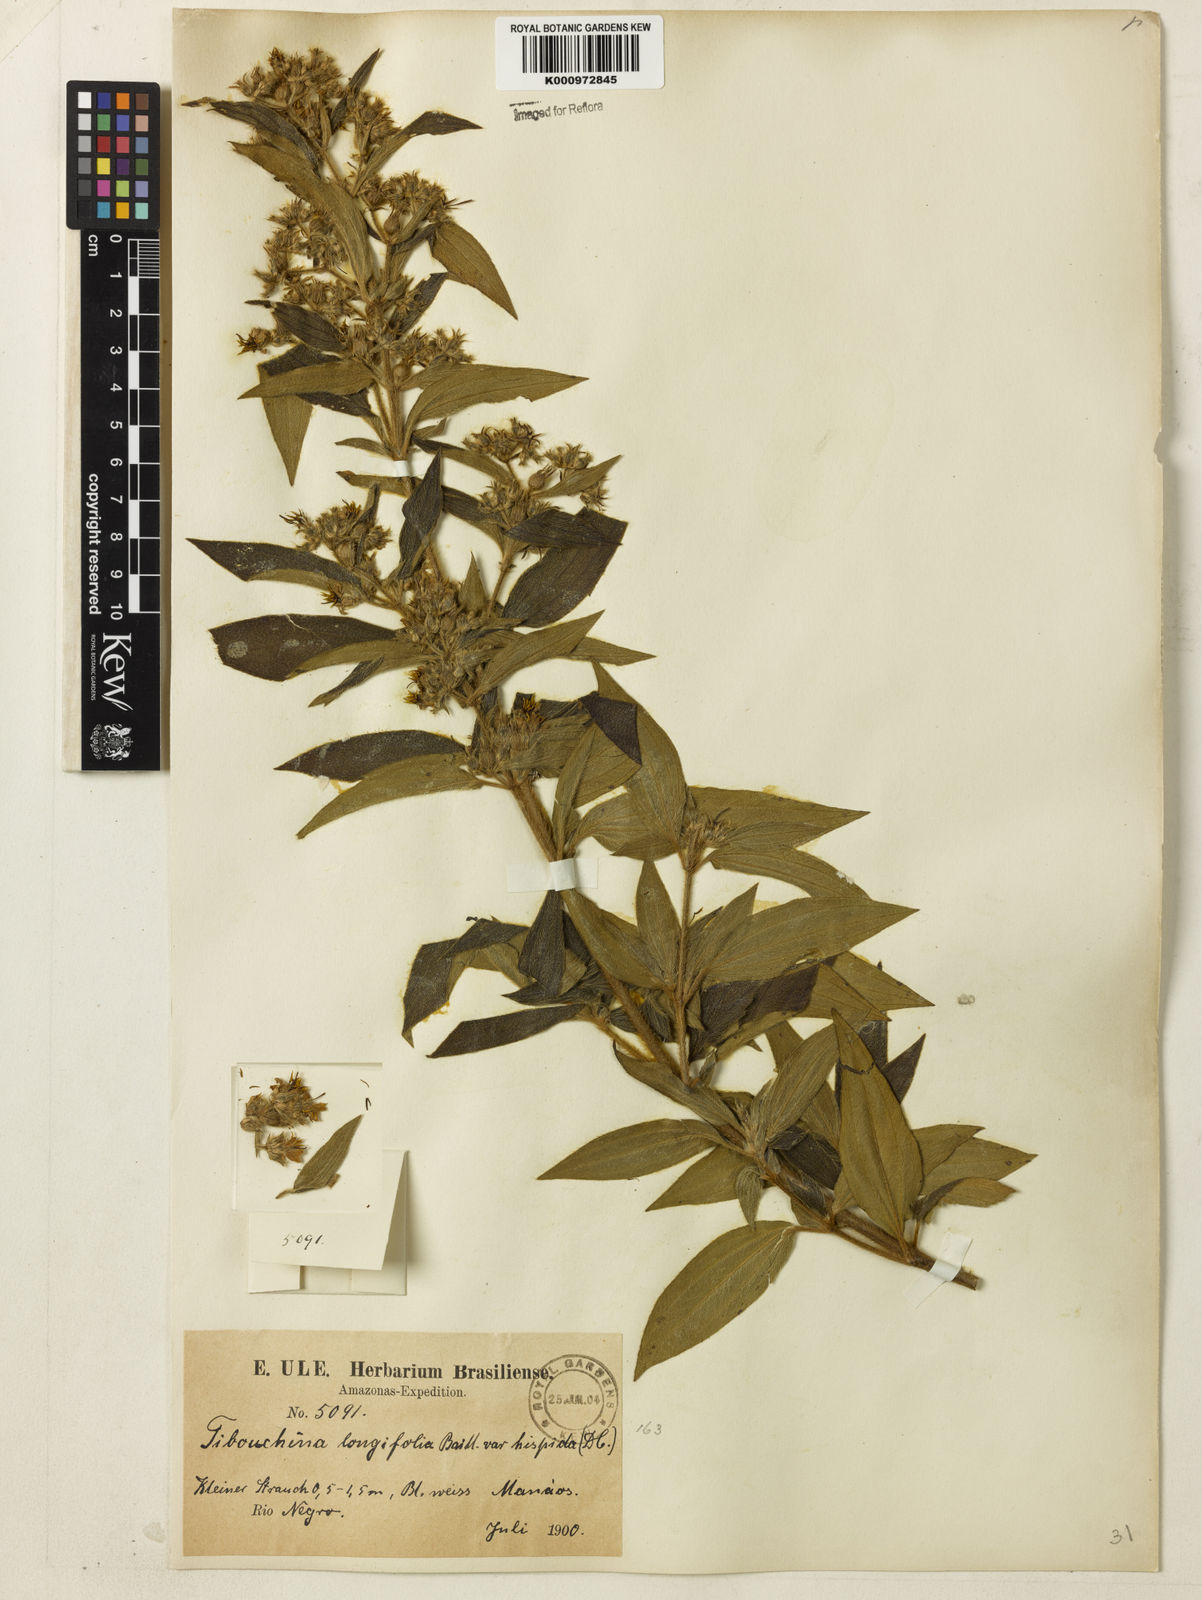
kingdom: Plantae
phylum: Tracheophyta
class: Magnoliopsida
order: Myrtales
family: Melastomataceae
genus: Chaetogastra
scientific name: Chaetogastra longifolia
